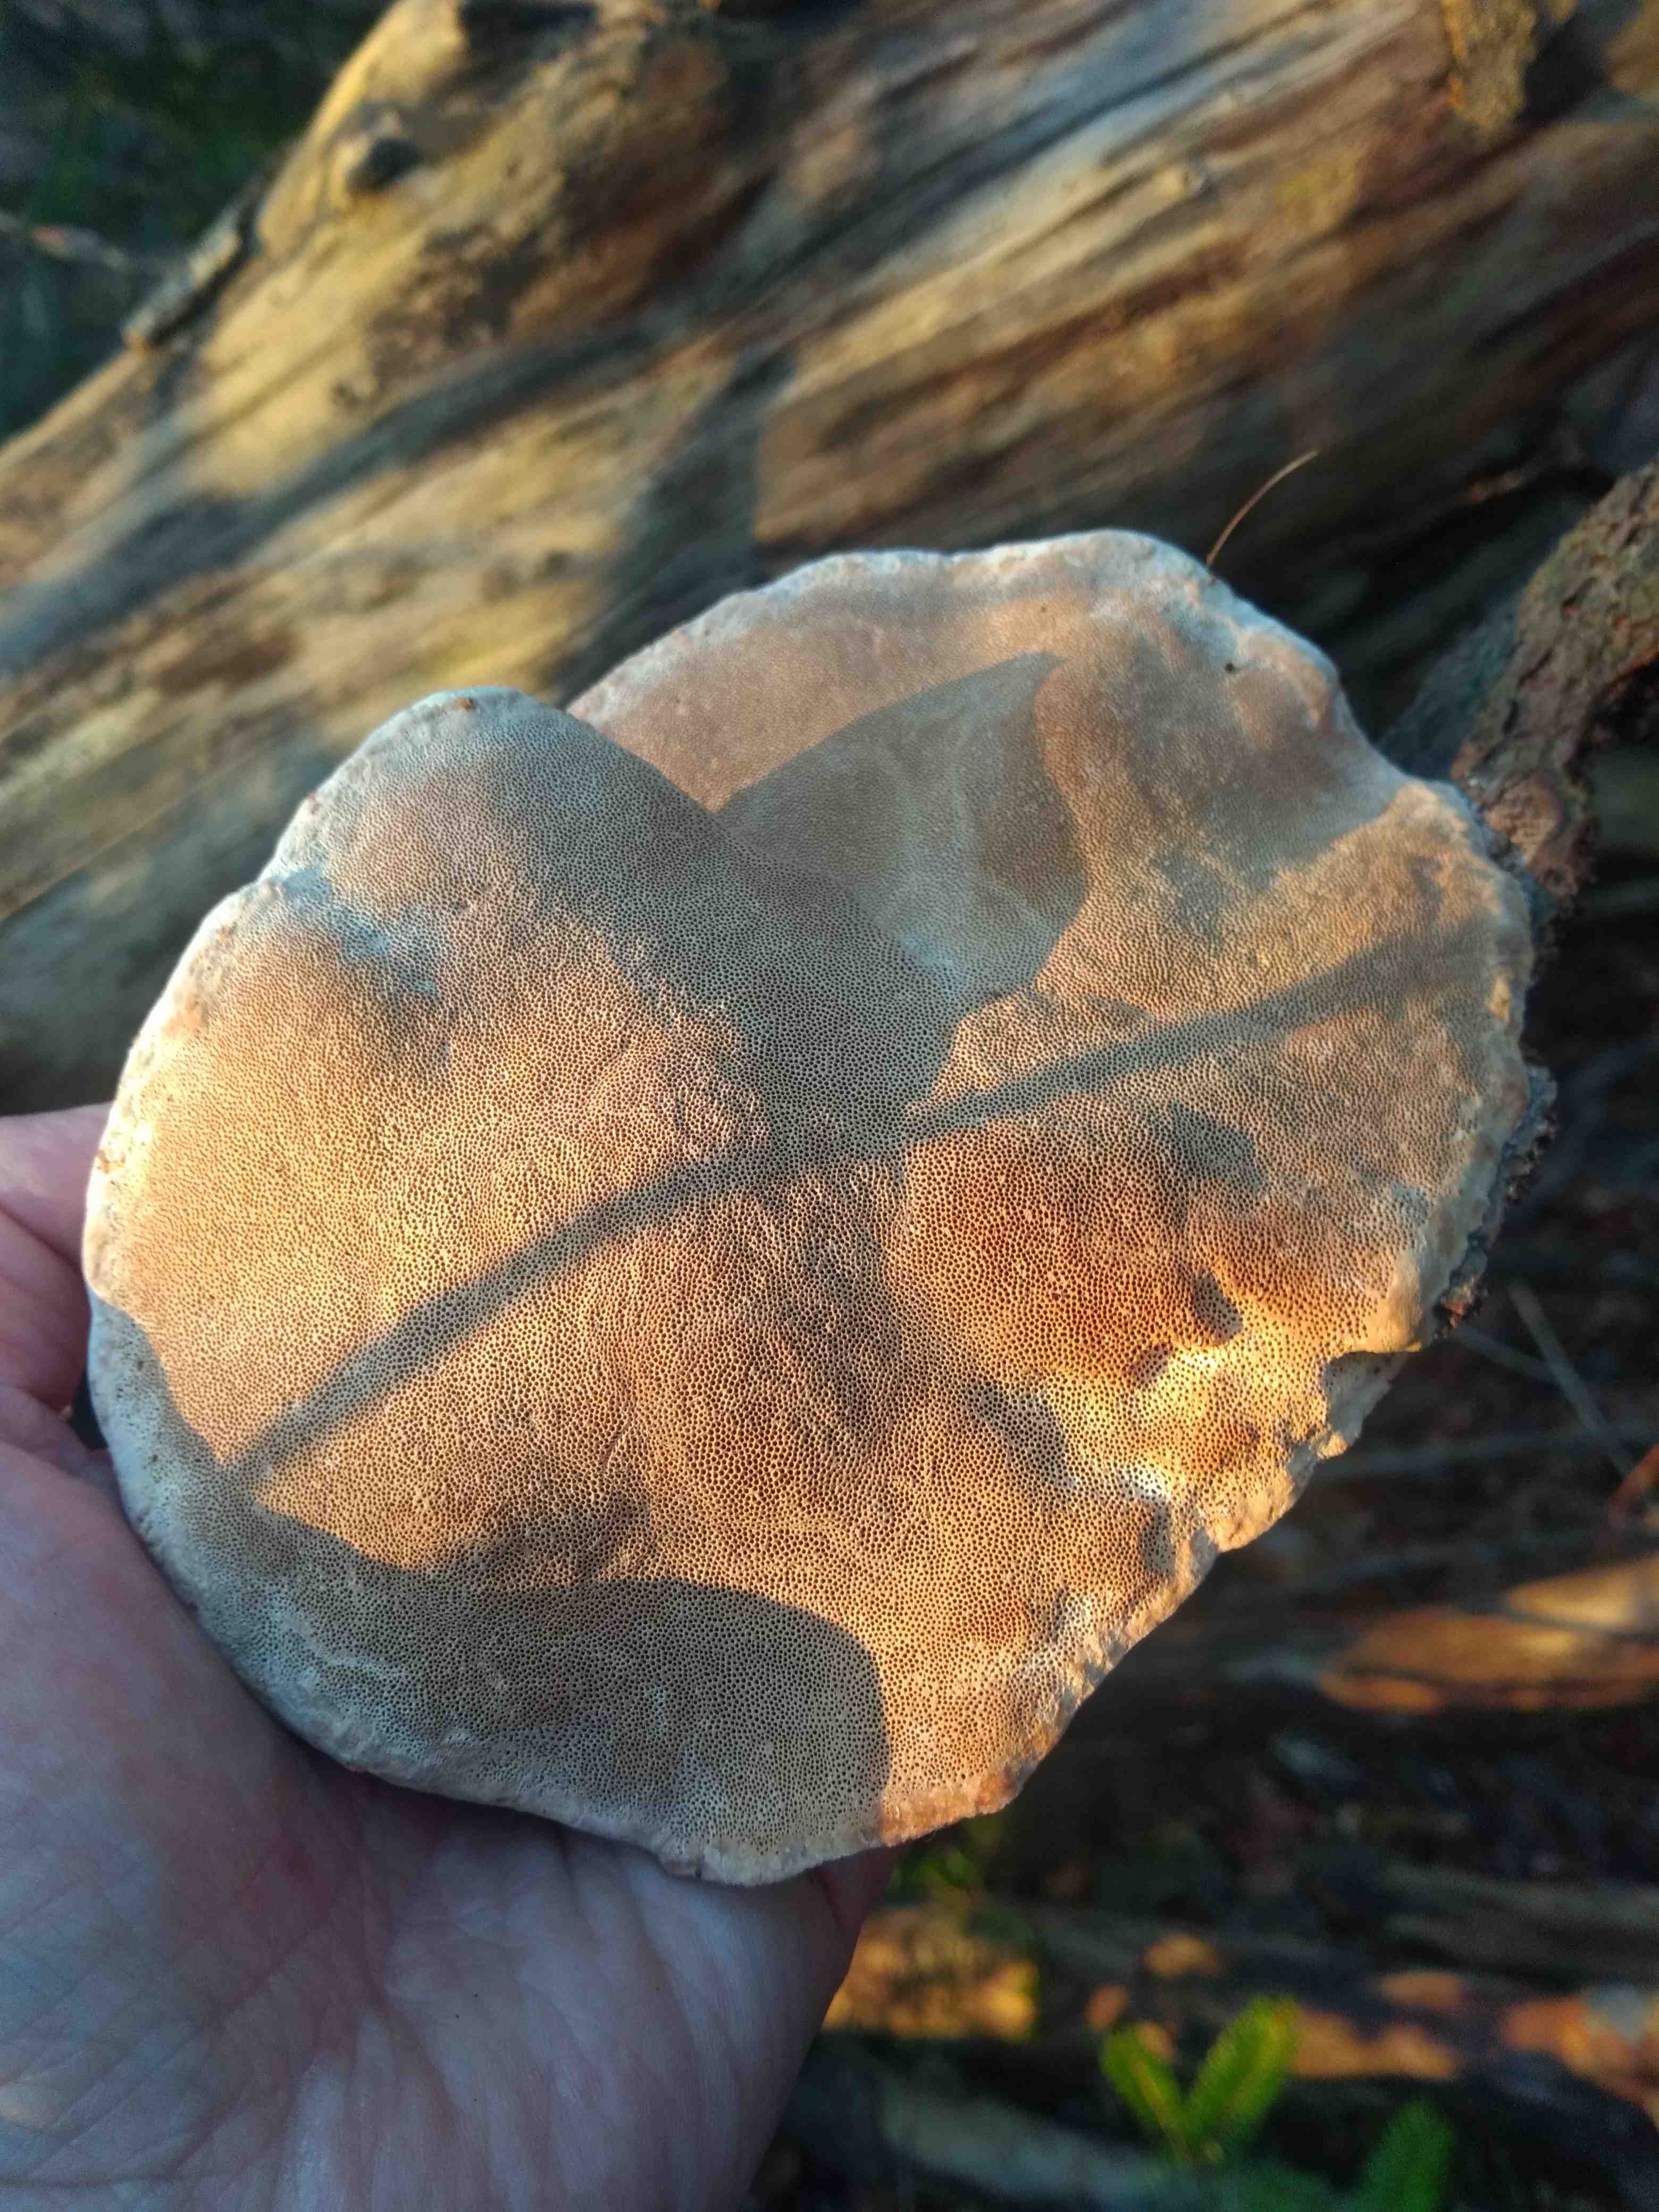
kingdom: Fungi
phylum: Basidiomycota
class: Agaricomycetes
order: Polyporales
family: Fomitopsidaceae
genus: Fomitopsis
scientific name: Fomitopsis pinicola
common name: randbæltet hovporesvamp
